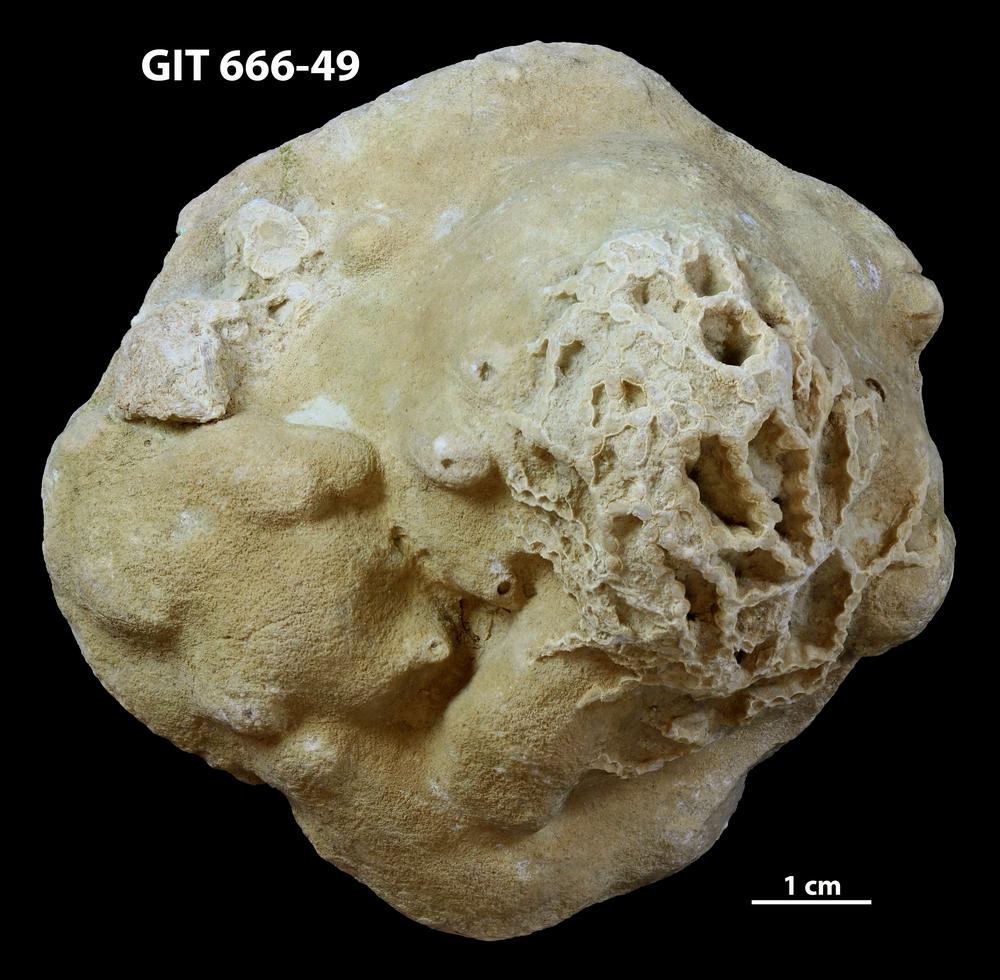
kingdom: Animalia
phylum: Porifera
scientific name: Porifera
